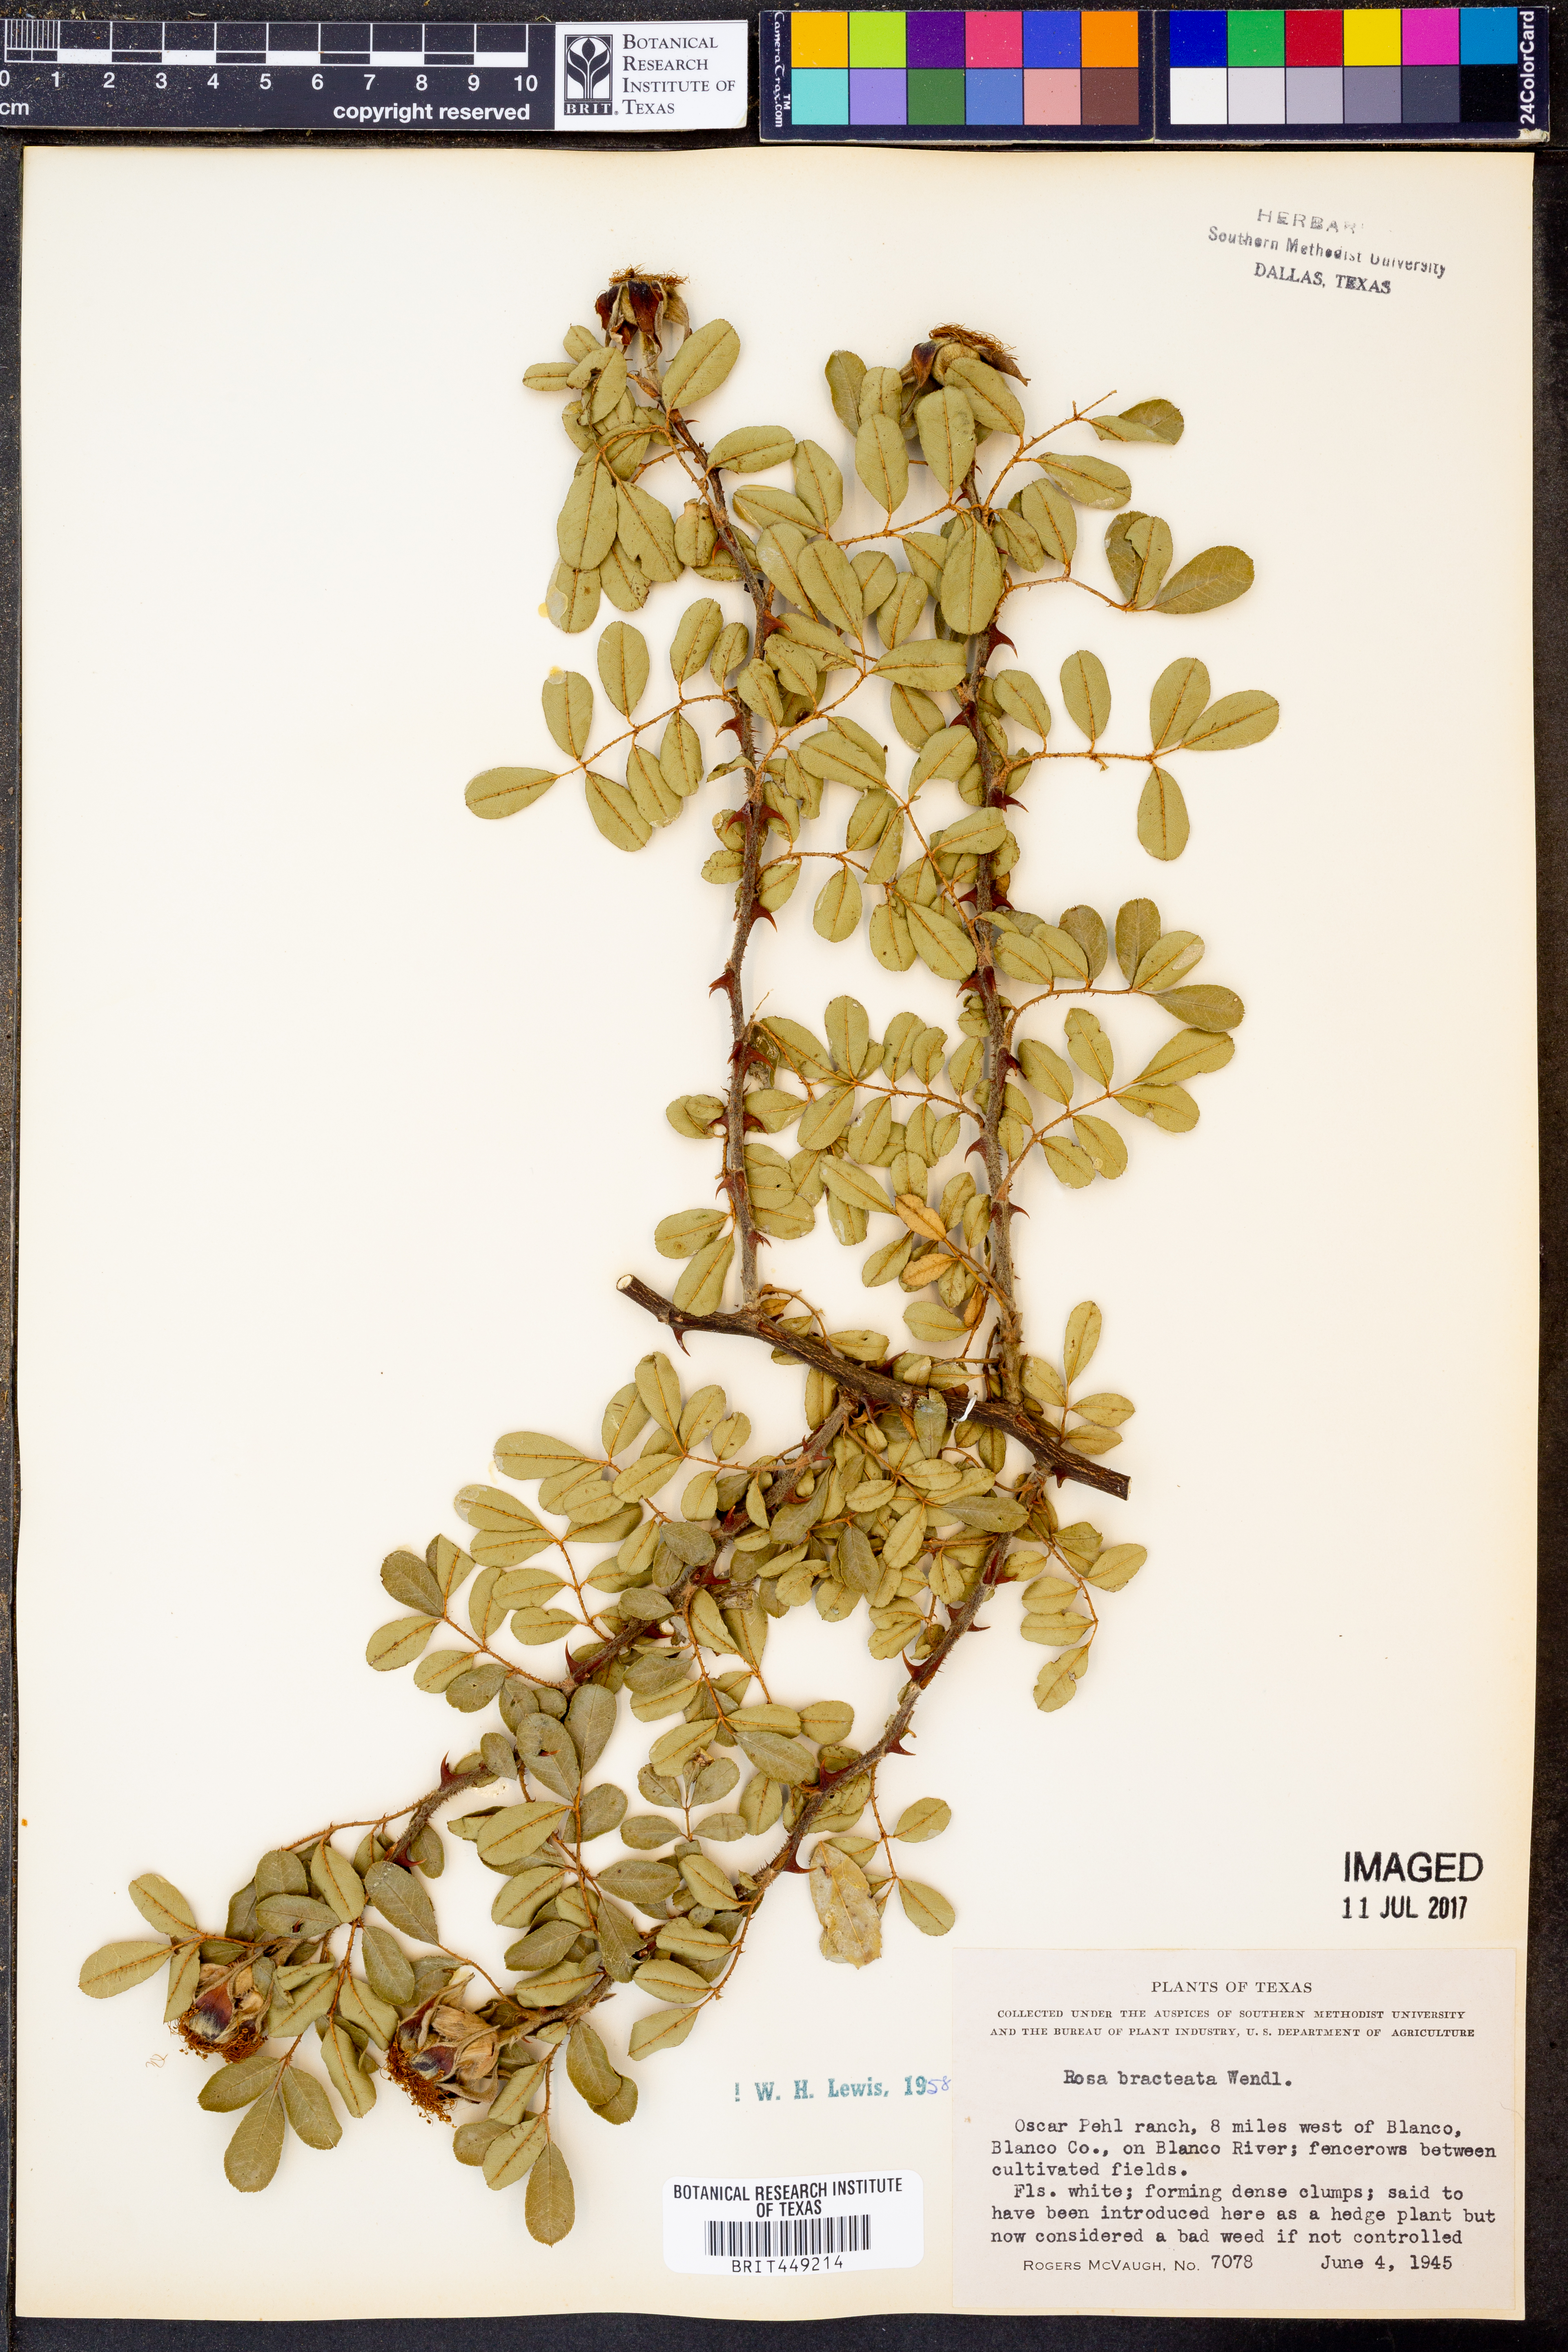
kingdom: Plantae
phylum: Tracheophyta
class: Magnoliopsida
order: Rosales
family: Rosaceae
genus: Rosa
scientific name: Rosa bracteata
